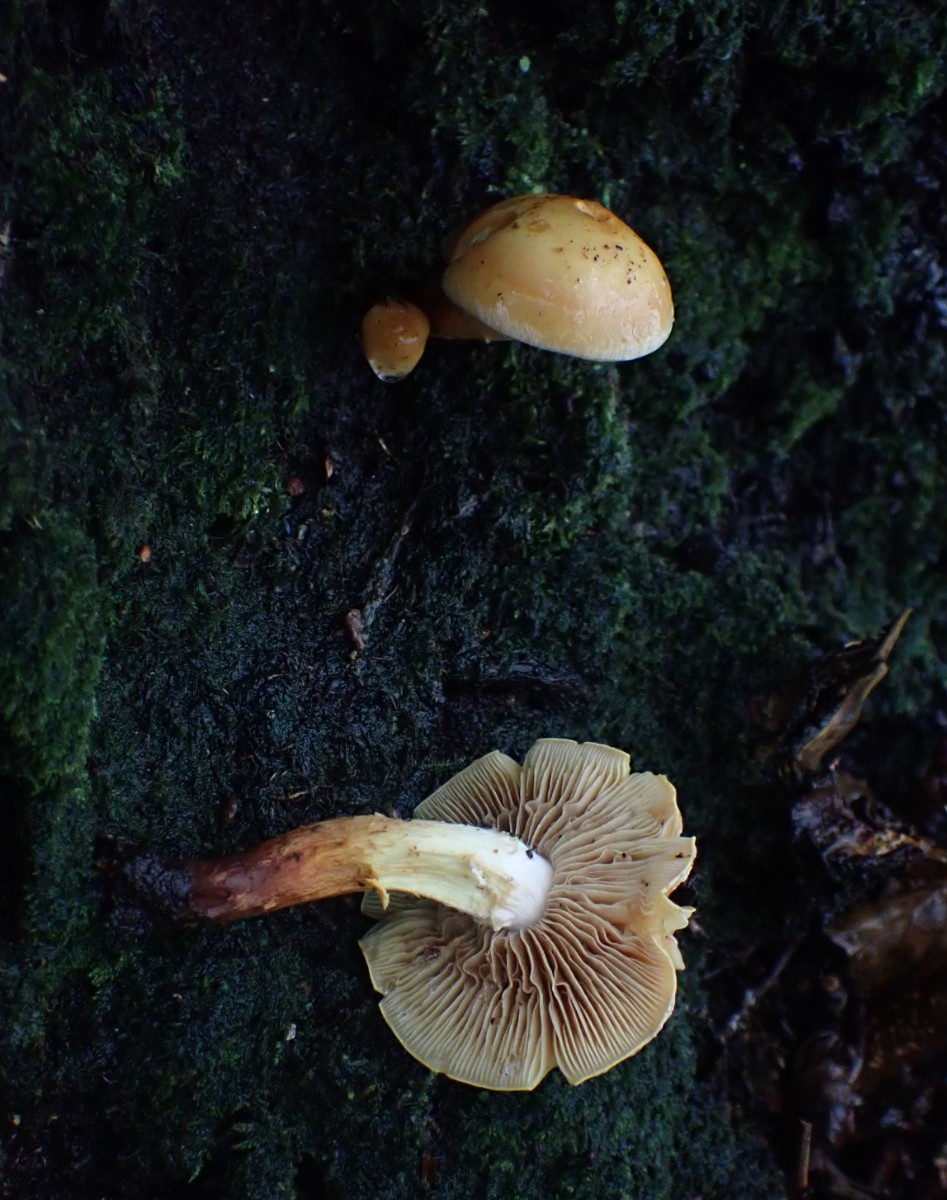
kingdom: Fungi
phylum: Basidiomycota
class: Agaricomycetes
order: Agaricales
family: Hymenogastraceae
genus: Flammula
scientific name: Flammula alnicola
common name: elle-skælhat
